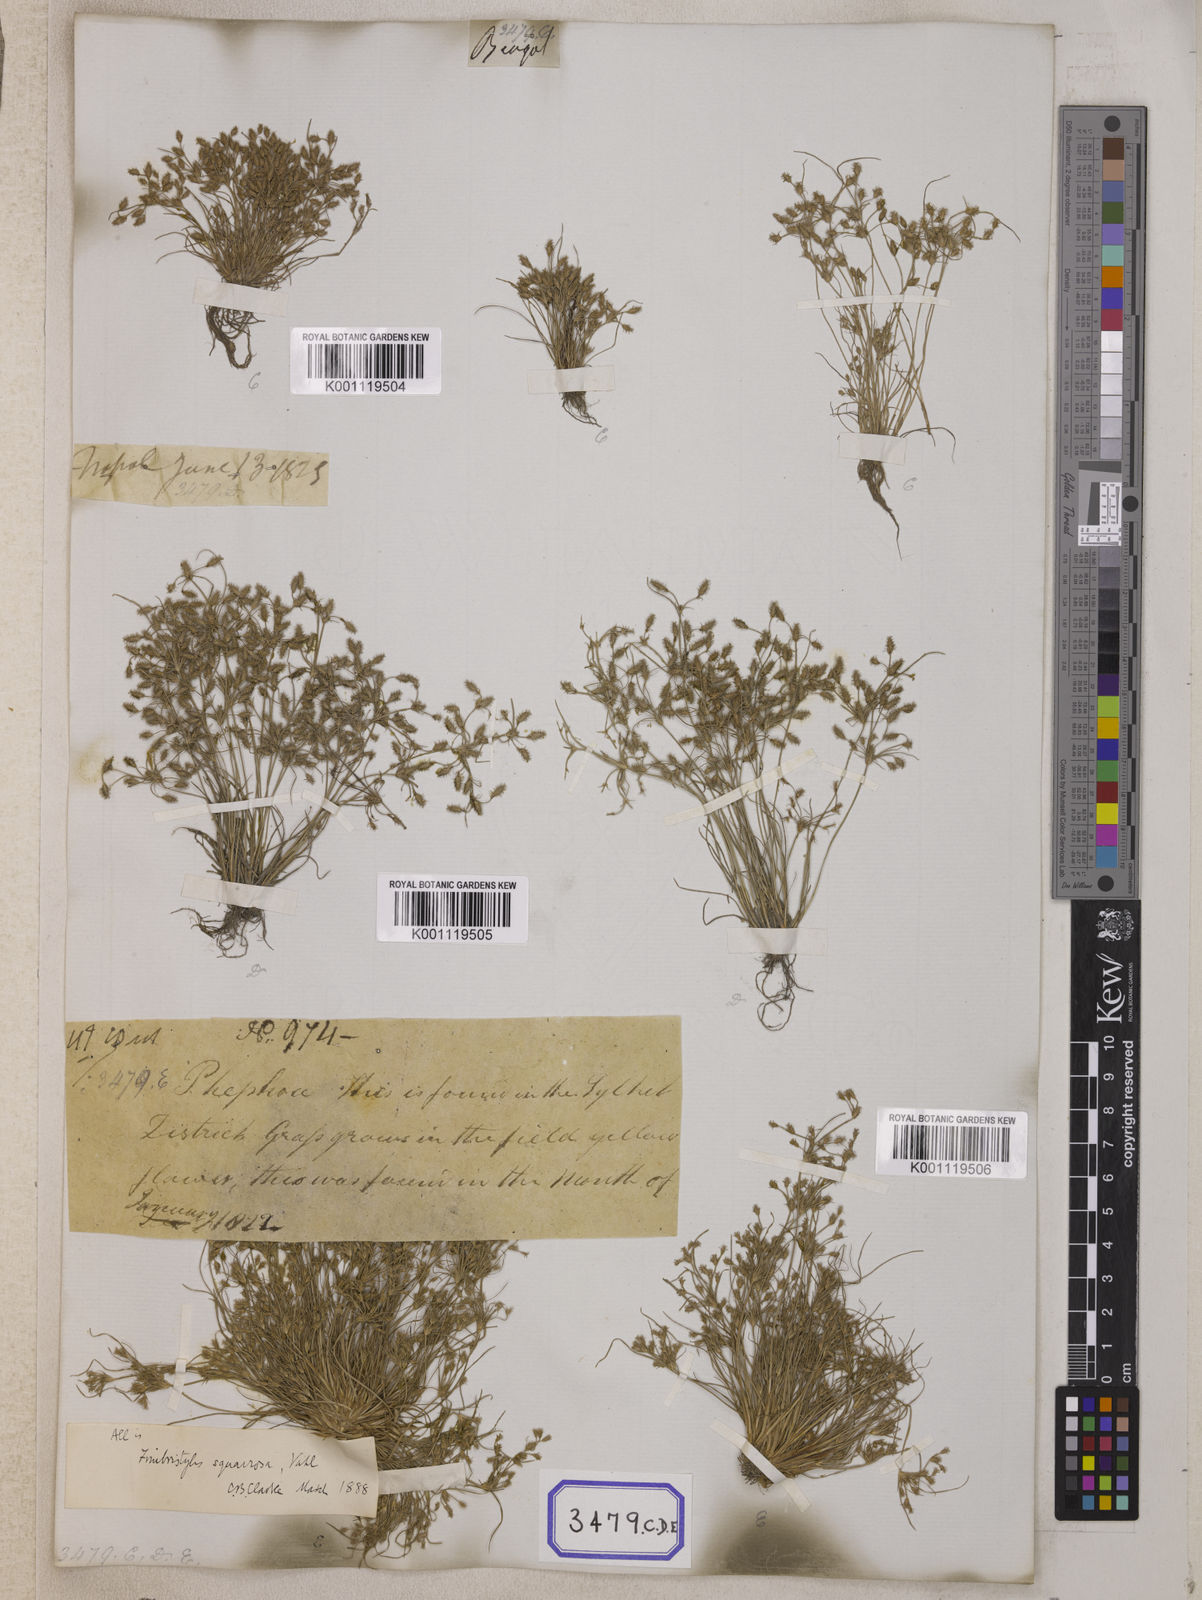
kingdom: Plantae
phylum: Tracheophyta
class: Liliopsida
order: Poales
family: Cyperaceae
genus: Isolepis
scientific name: Isolepis
